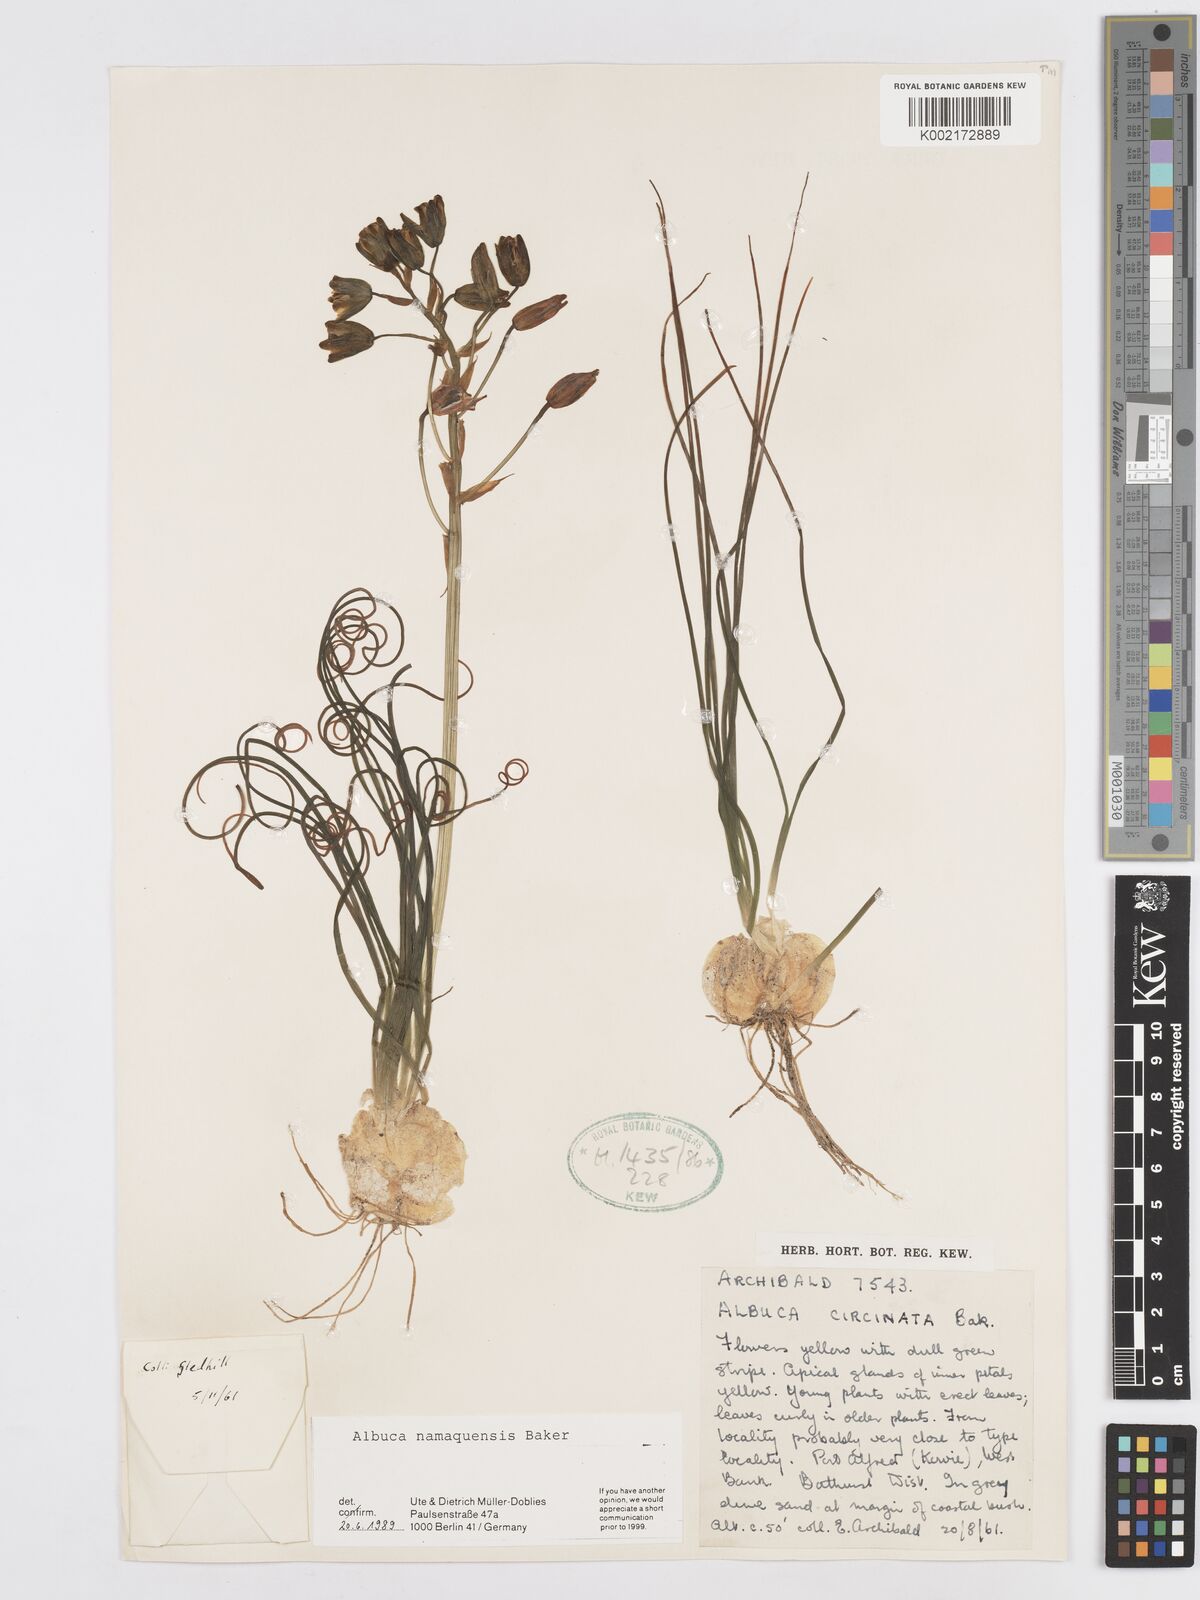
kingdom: Plantae
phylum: Tracheophyta
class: Liliopsida
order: Asparagales
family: Asparagaceae
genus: Albuca
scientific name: Albuca namaquensis
